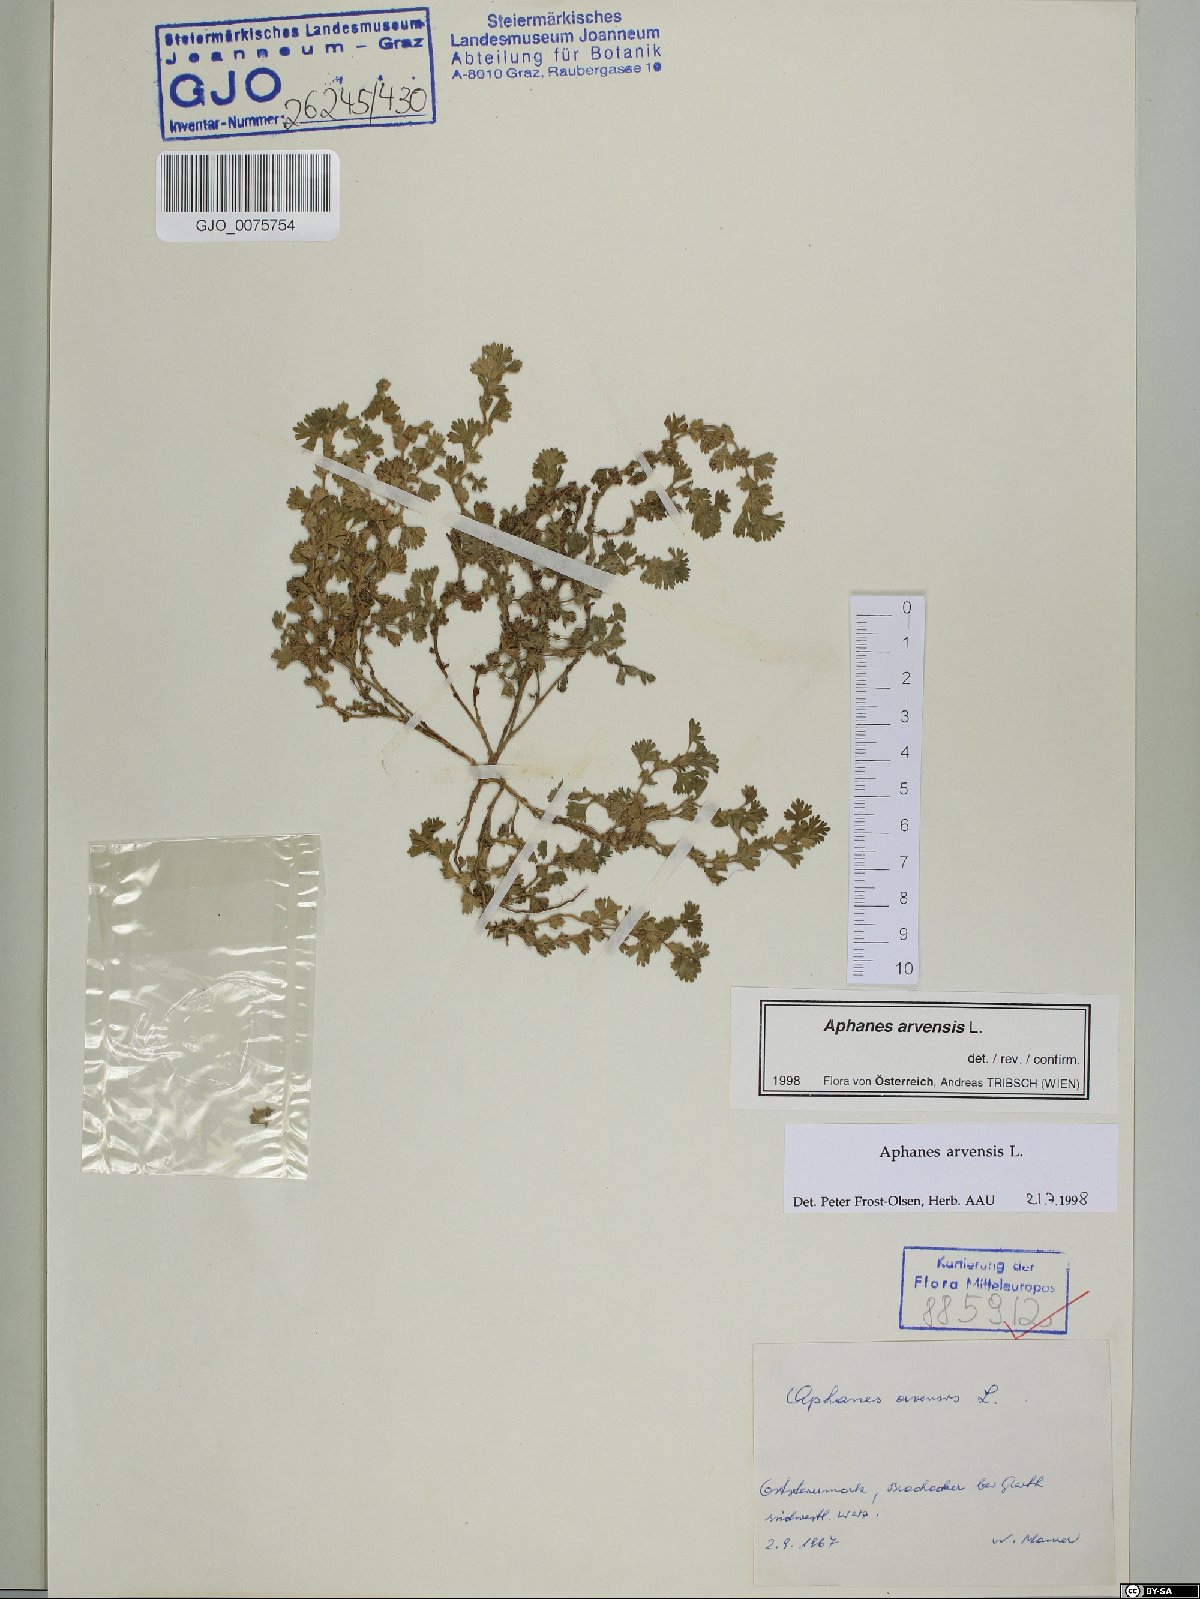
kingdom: Plantae
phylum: Tracheophyta
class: Magnoliopsida
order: Rosales
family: Rosaceae
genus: Aphanes
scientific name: Aphanes arvensis
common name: Parsley-piert
